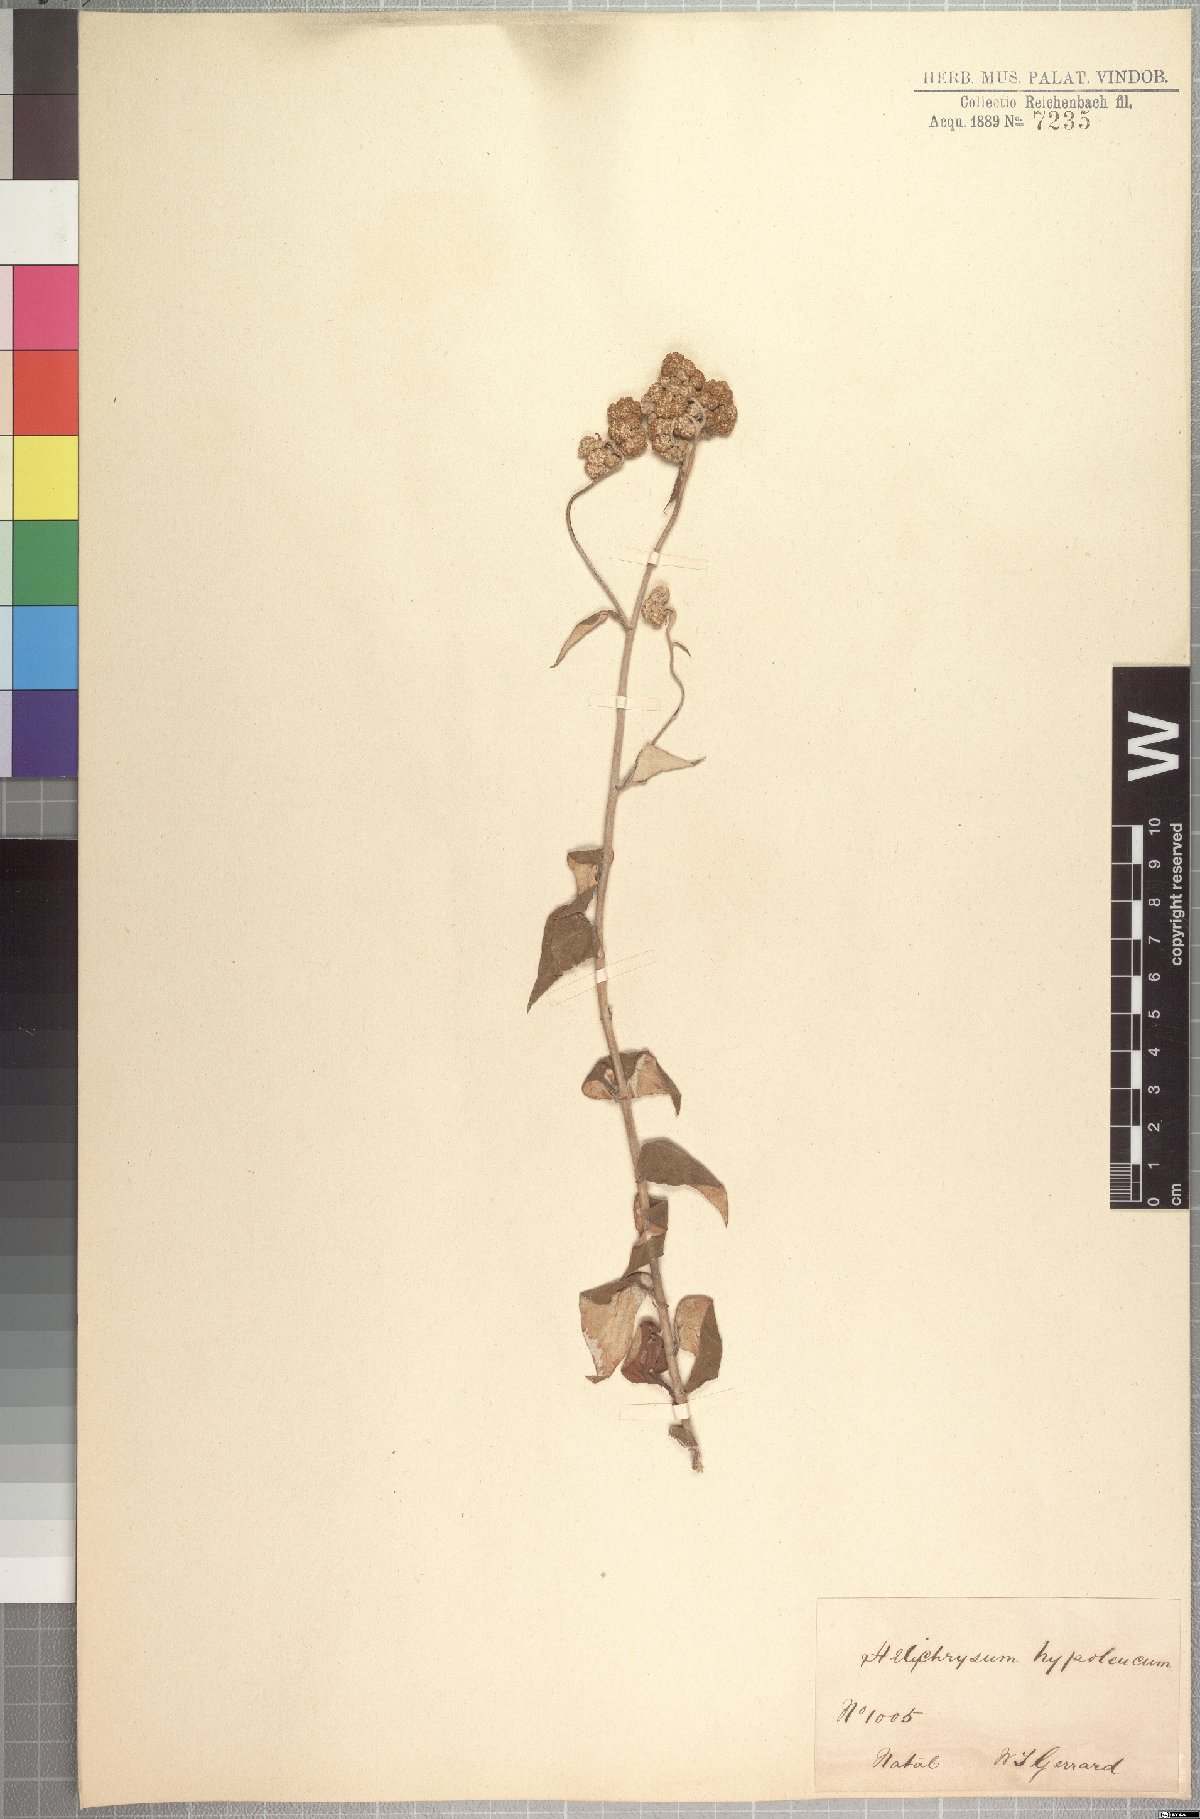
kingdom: Plantae
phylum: Tracheophyta
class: Magnoliopsida
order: Asterales
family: Asteraceae
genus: Helichrysum
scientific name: Helichrysum hypoleucum
